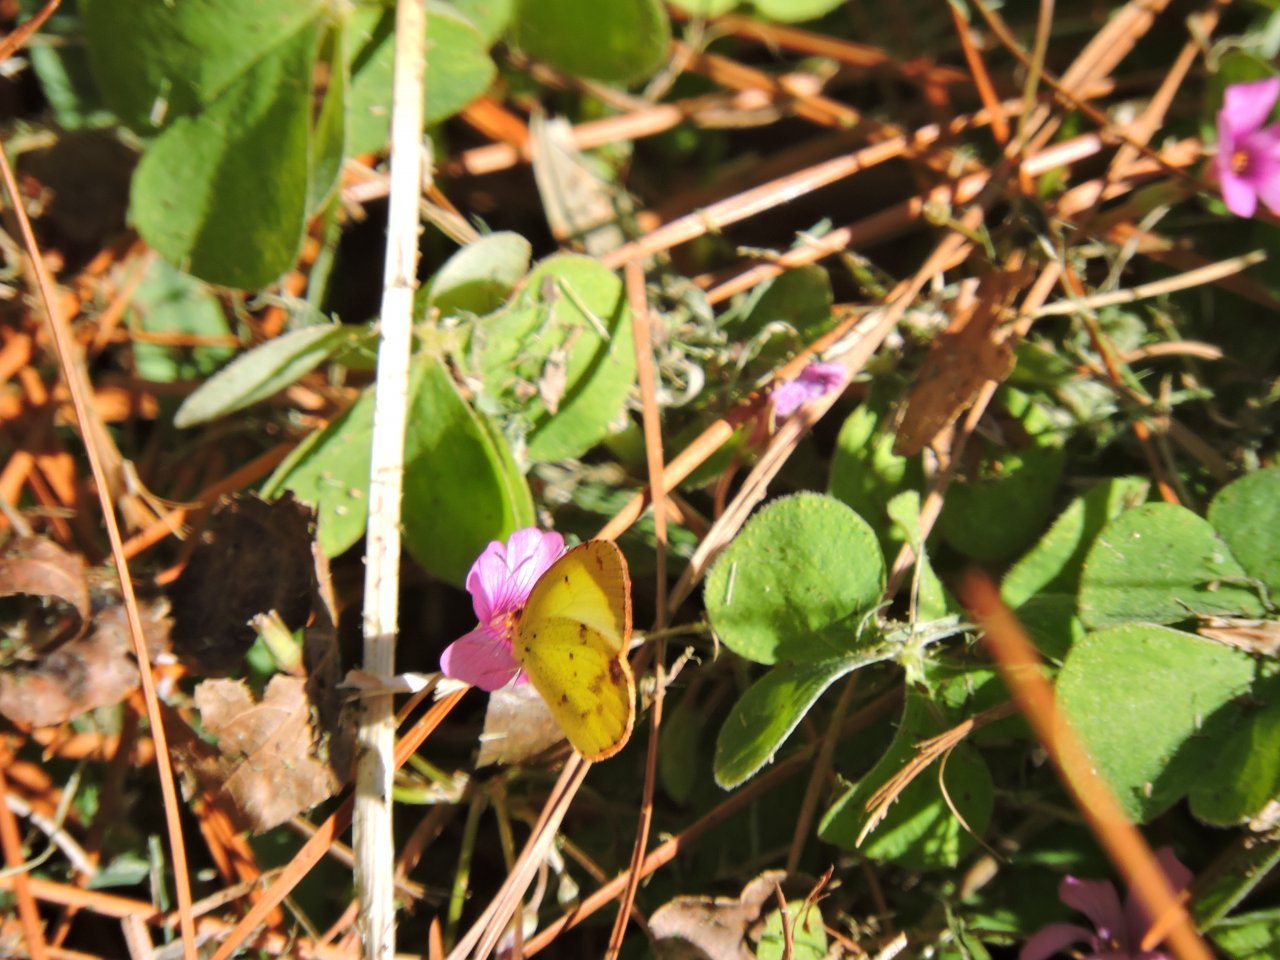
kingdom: Animalia
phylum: Arthropoda
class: Insecta
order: Lepidoptera
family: Pieridae
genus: Pyrisitia
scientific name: Pyrisitia lisa
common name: Little Yellow
